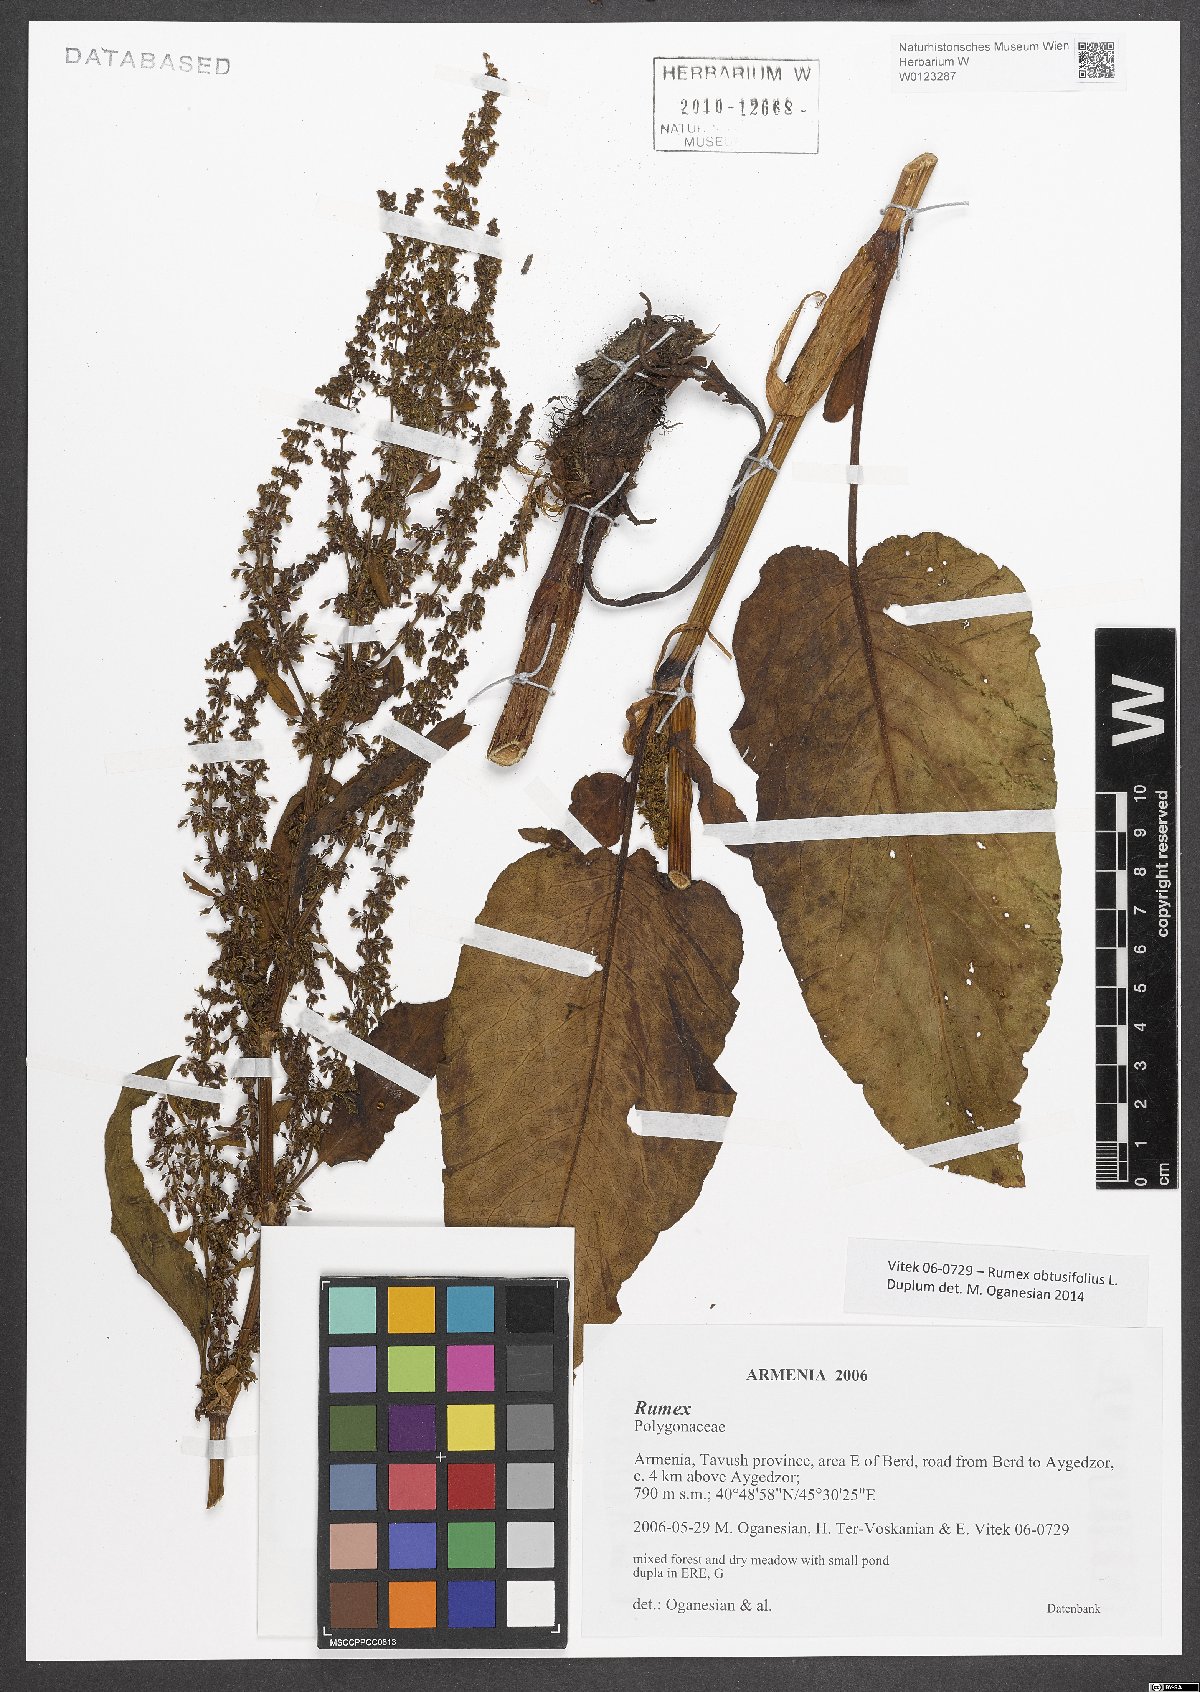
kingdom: Plantae
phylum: Tracheophyta
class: Magnoliopsida
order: Caryophyllales
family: Polygonaceae
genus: Rumex
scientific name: Rumex obtusifolius
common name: Bitter dock
